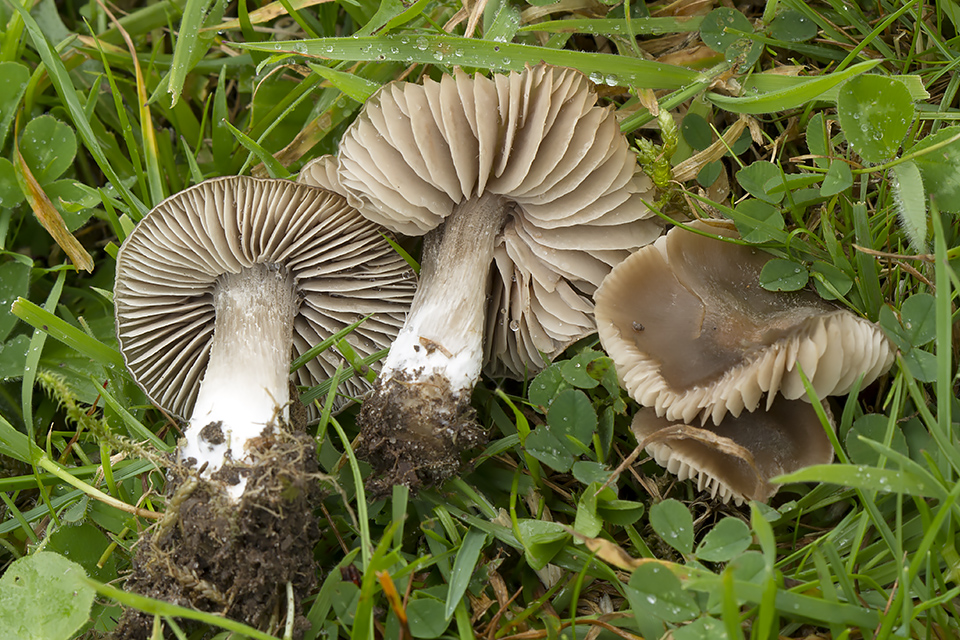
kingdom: Fungi
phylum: Basidiomycota
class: Agaricomycetes
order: Agaricales
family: Entolomataceae
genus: Entoloma
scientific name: Entoloma ameides
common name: sødlig rødblad
